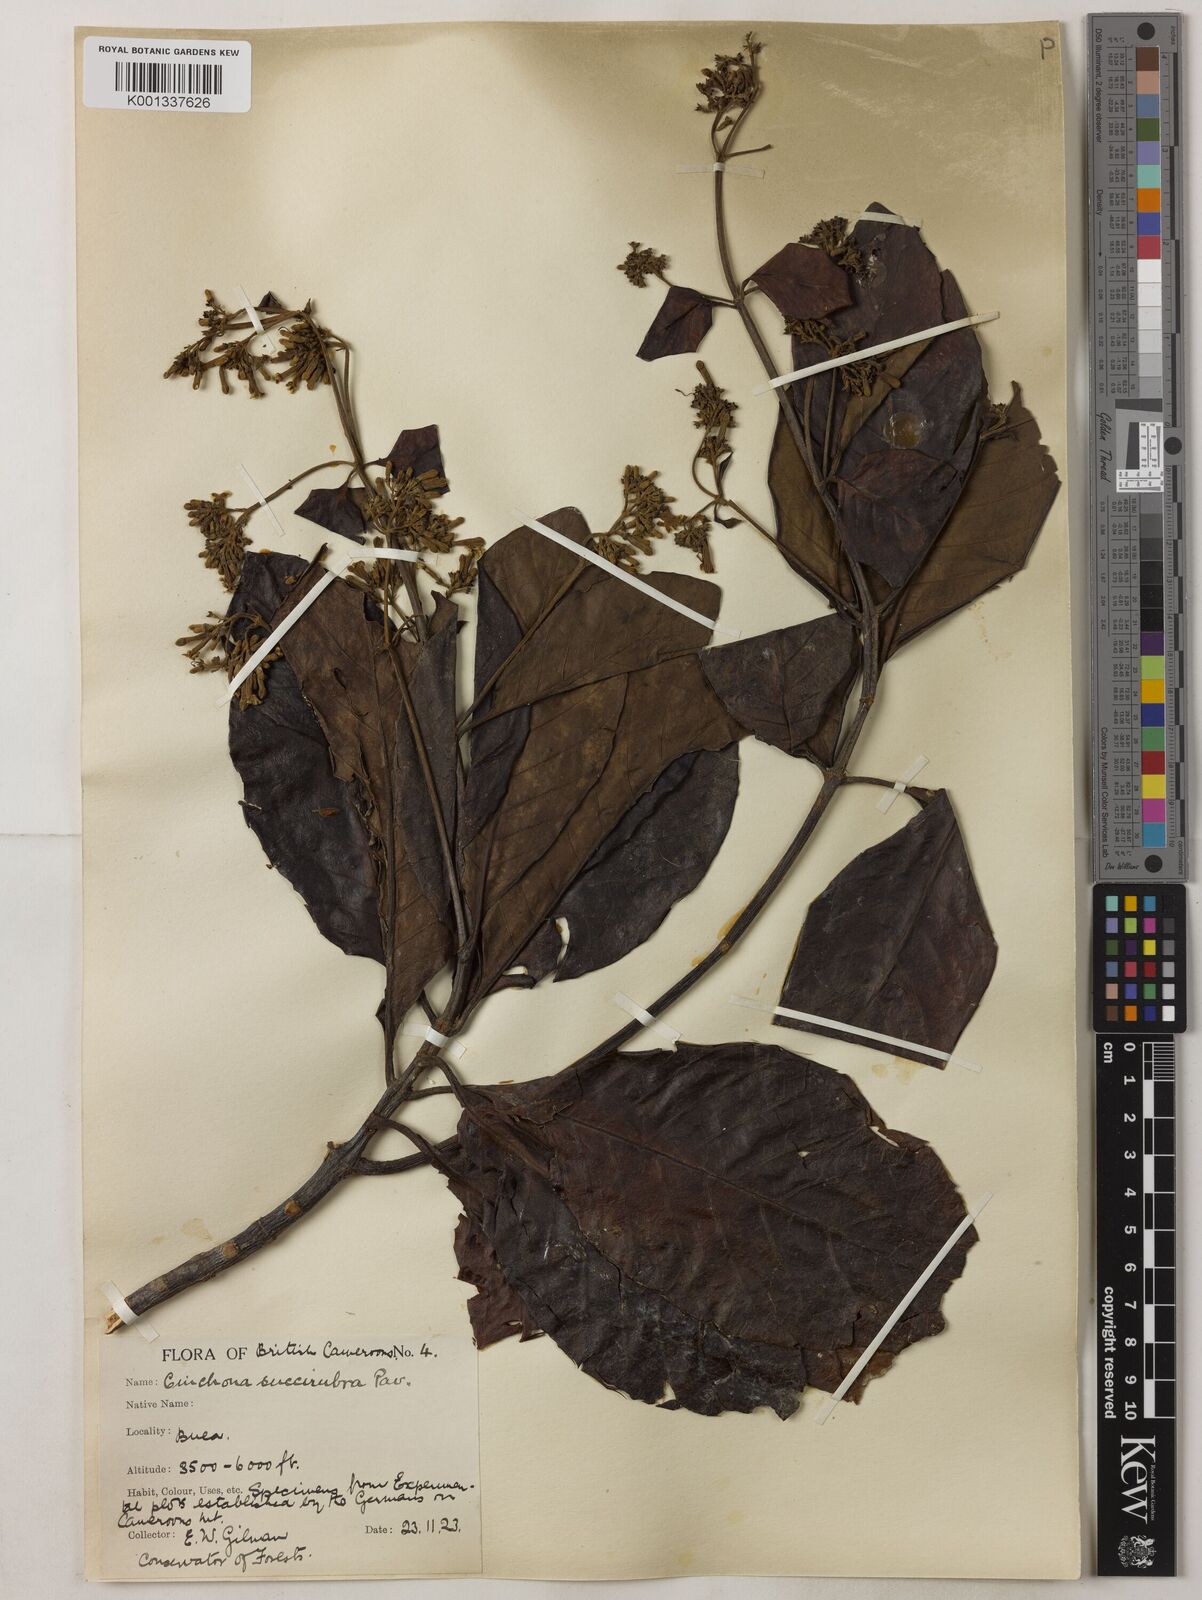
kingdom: Plantae
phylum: Tracheophyta
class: Magnoliopsida
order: Gentianales
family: Rubiaceae
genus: Cinchona
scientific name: Cinchona pubescens
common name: Quinine
